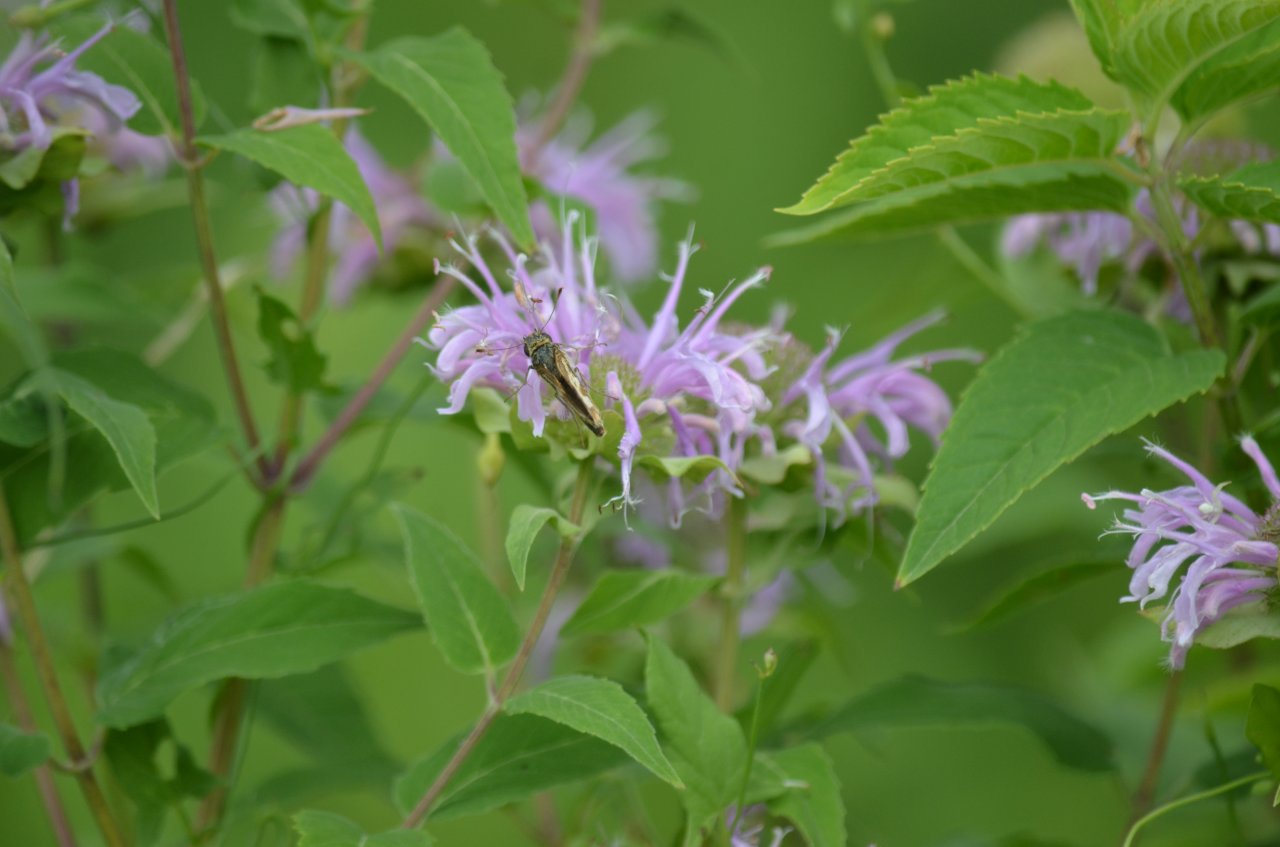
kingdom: Animalia
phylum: Arthropoda
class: Insecta
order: Lepidoptera
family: Hesperiidae
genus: Polites
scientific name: Polites coras
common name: Peck's Skipper
